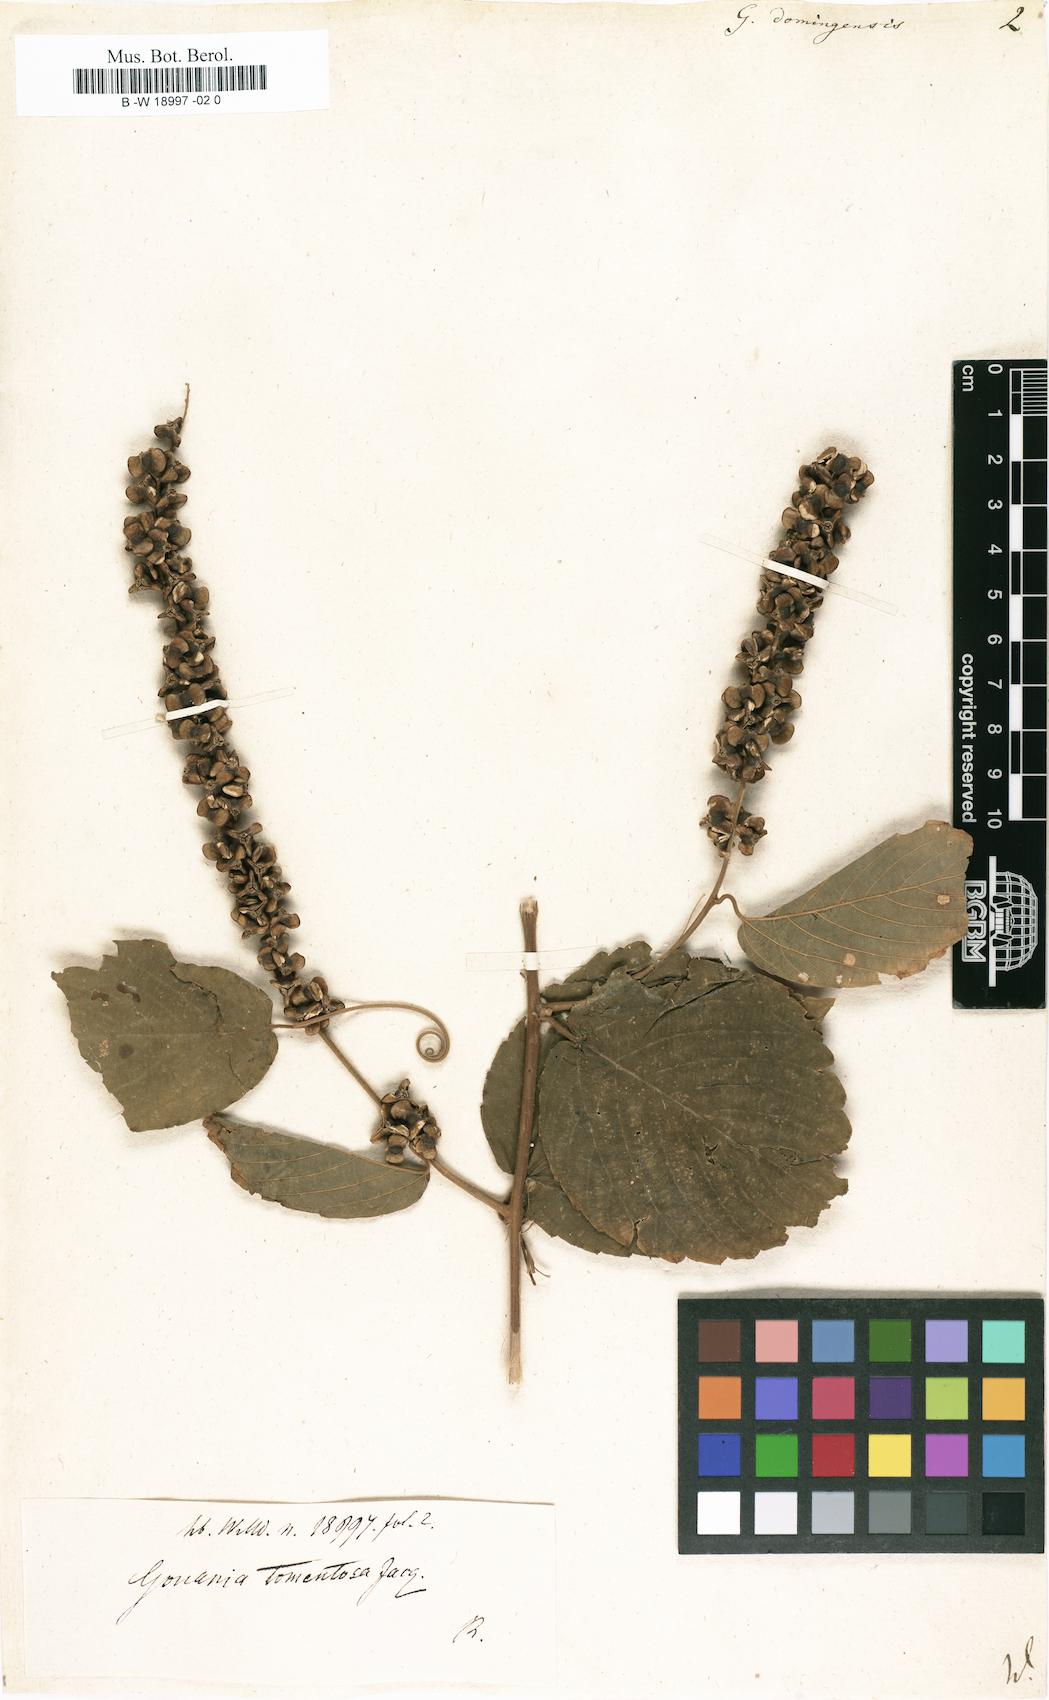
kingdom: Plantae
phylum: Tracheophyta
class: Magnoliopsida
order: Rosales
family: Rhamnaceae
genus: Gouania
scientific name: Gouania lupuloides
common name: Chewstick
